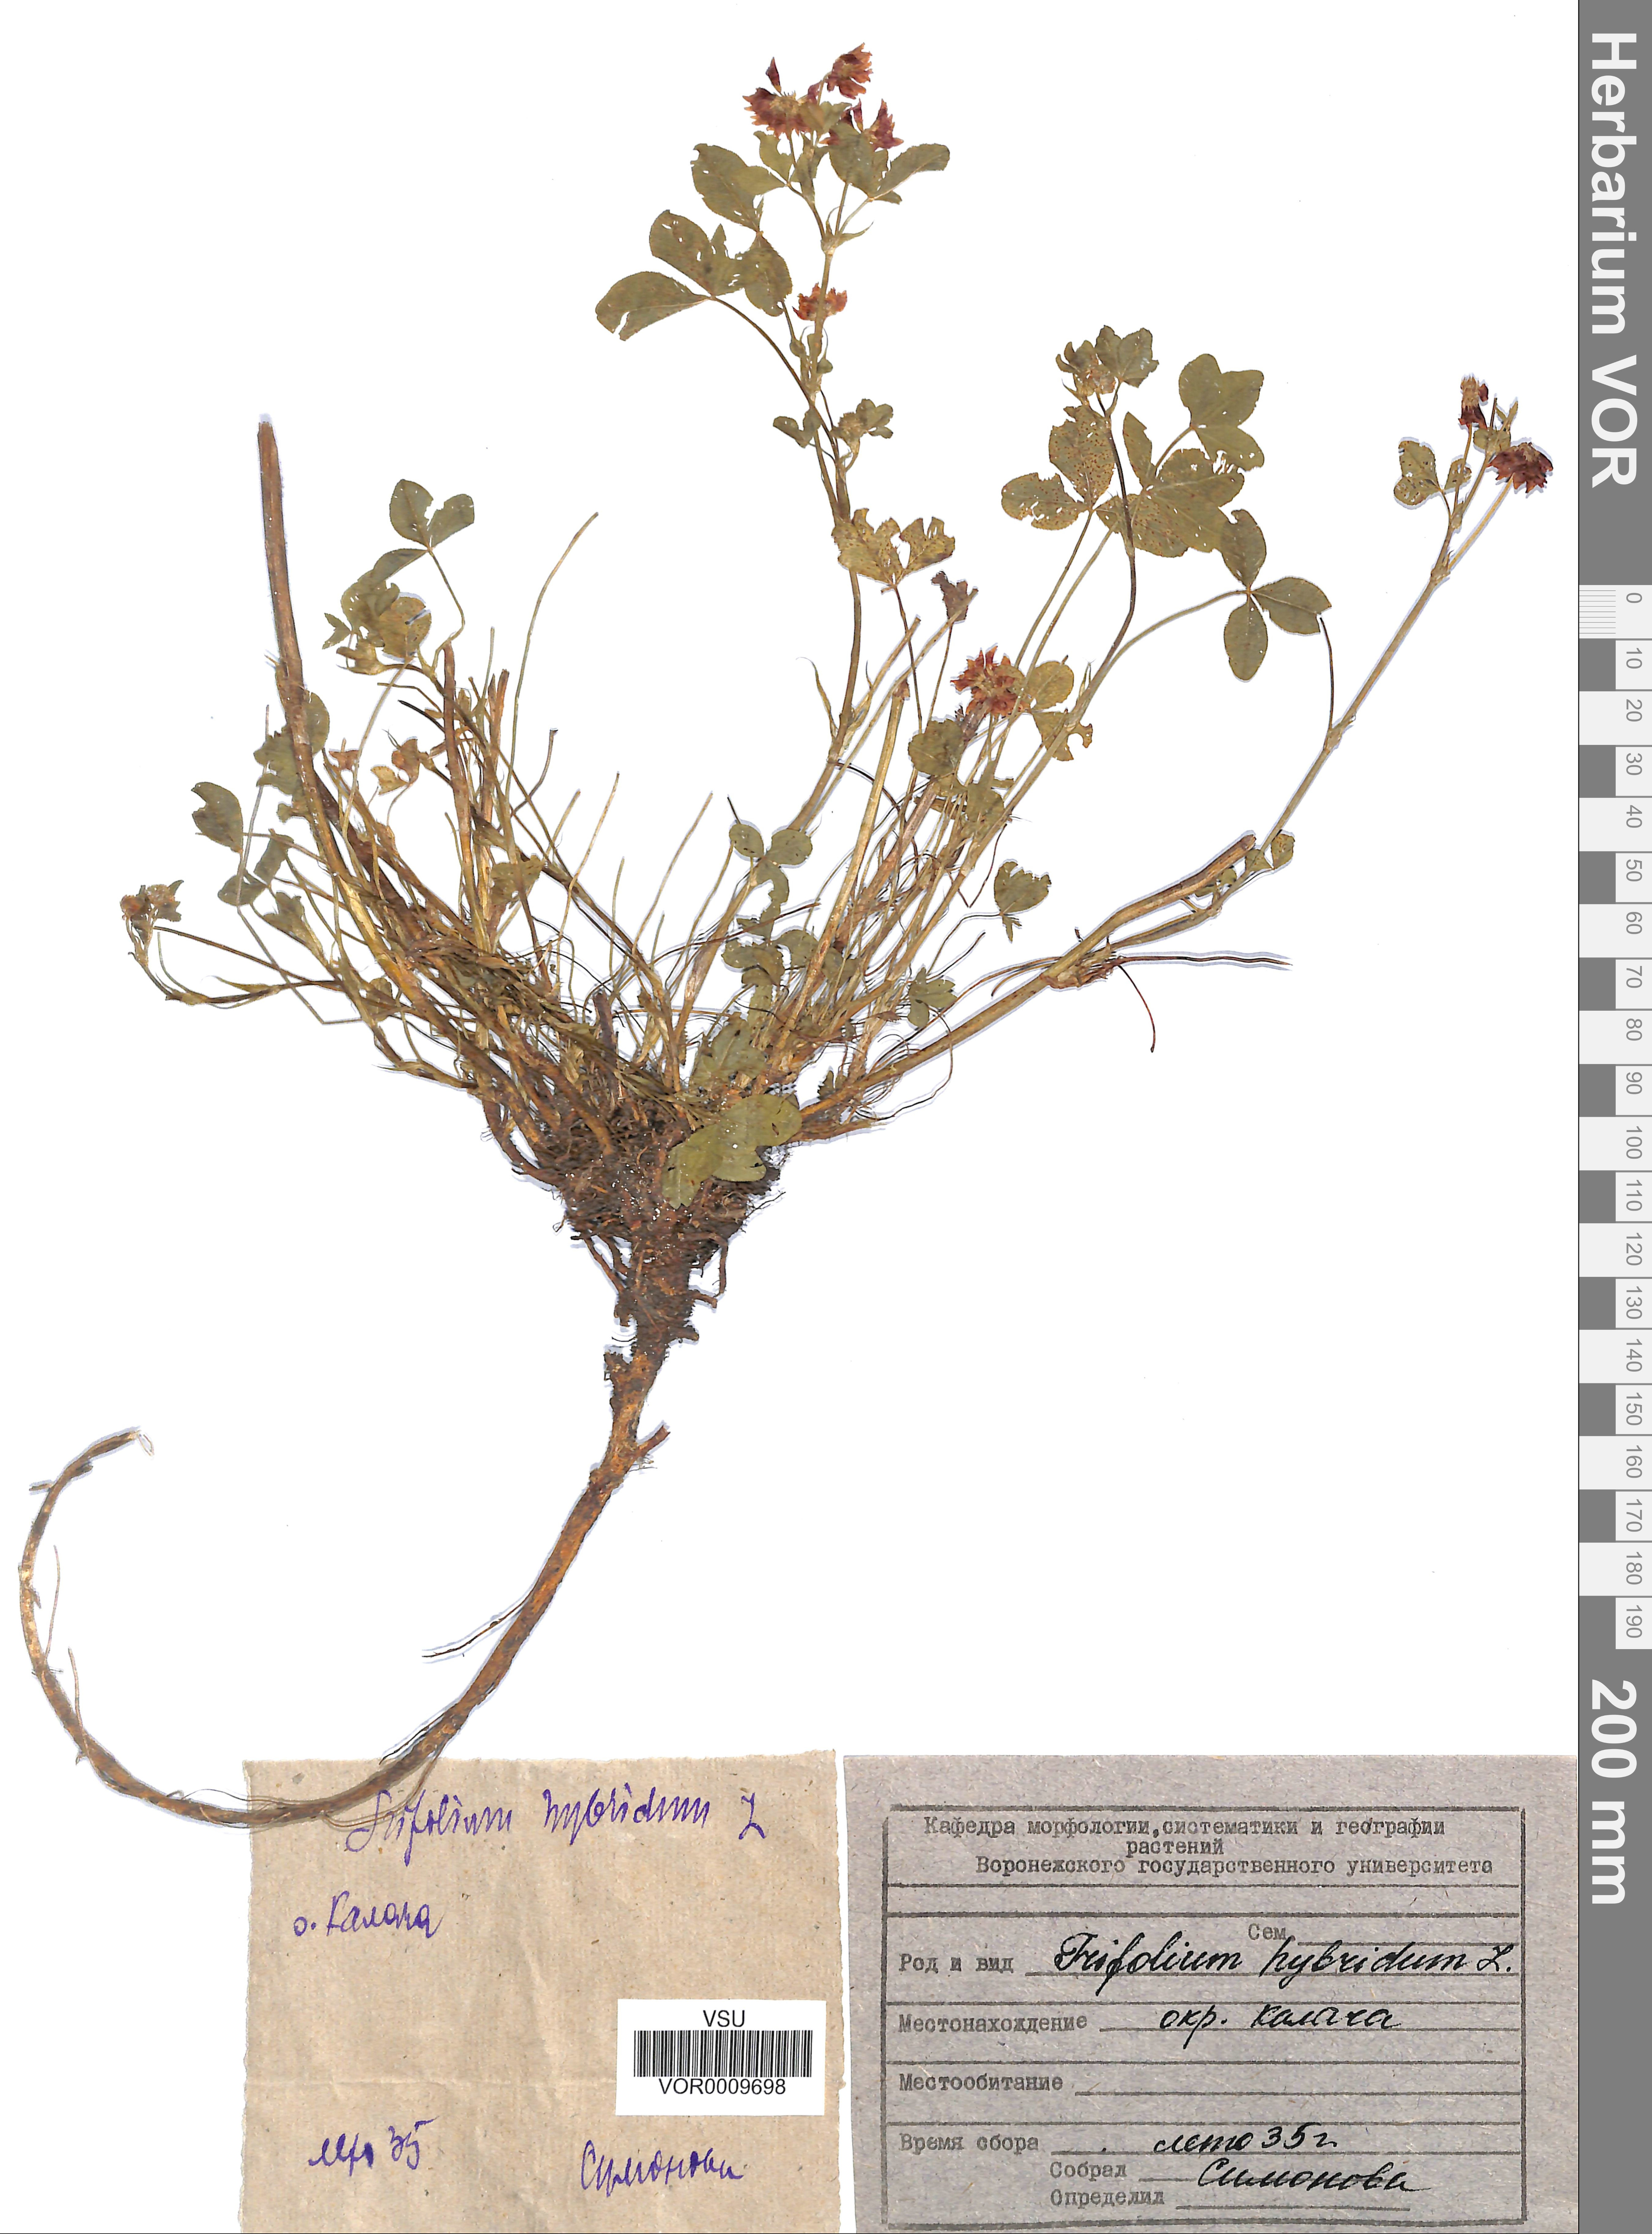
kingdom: Plantae
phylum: Tracheophyta
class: Magnoliopsida
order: Fabales
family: Fabaceae
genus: Trifolium
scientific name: Trifolium hybridum
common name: Alsike clover
